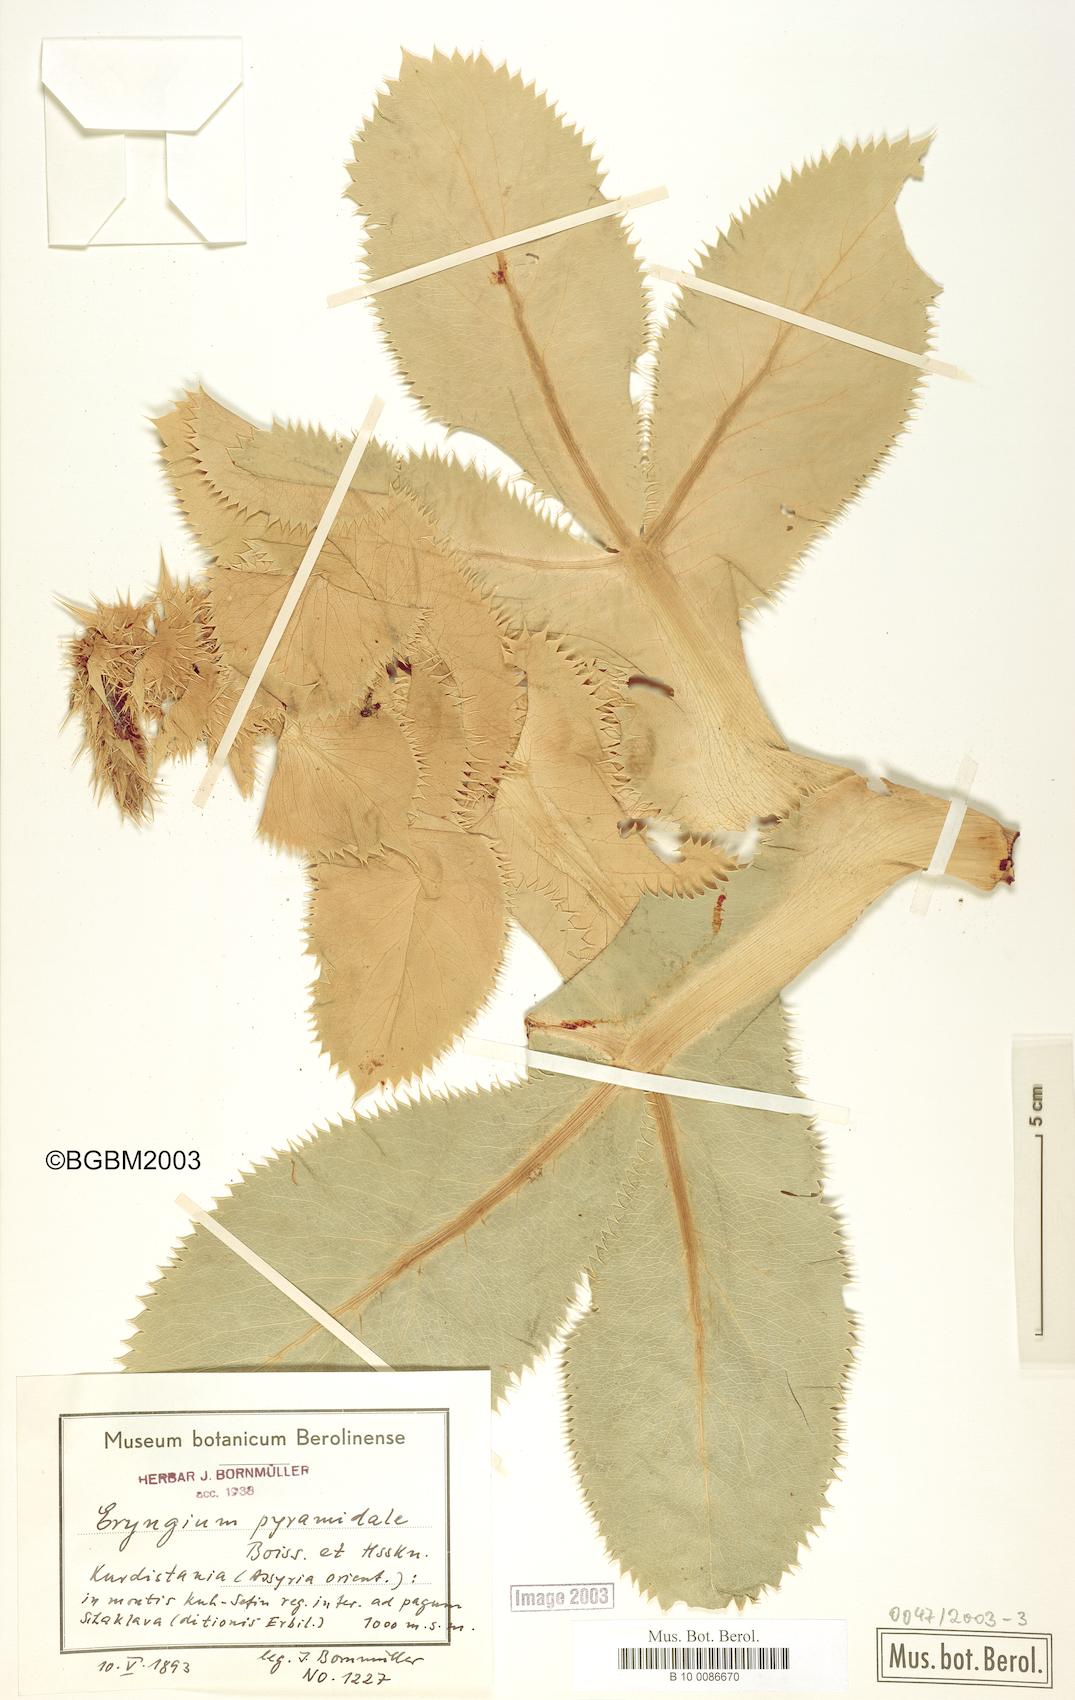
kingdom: Plantae
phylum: Tracheophyta
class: Magnoliopsida
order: Apiales
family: Apiaceae
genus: Eryngium
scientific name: Eryngium pyramidale
